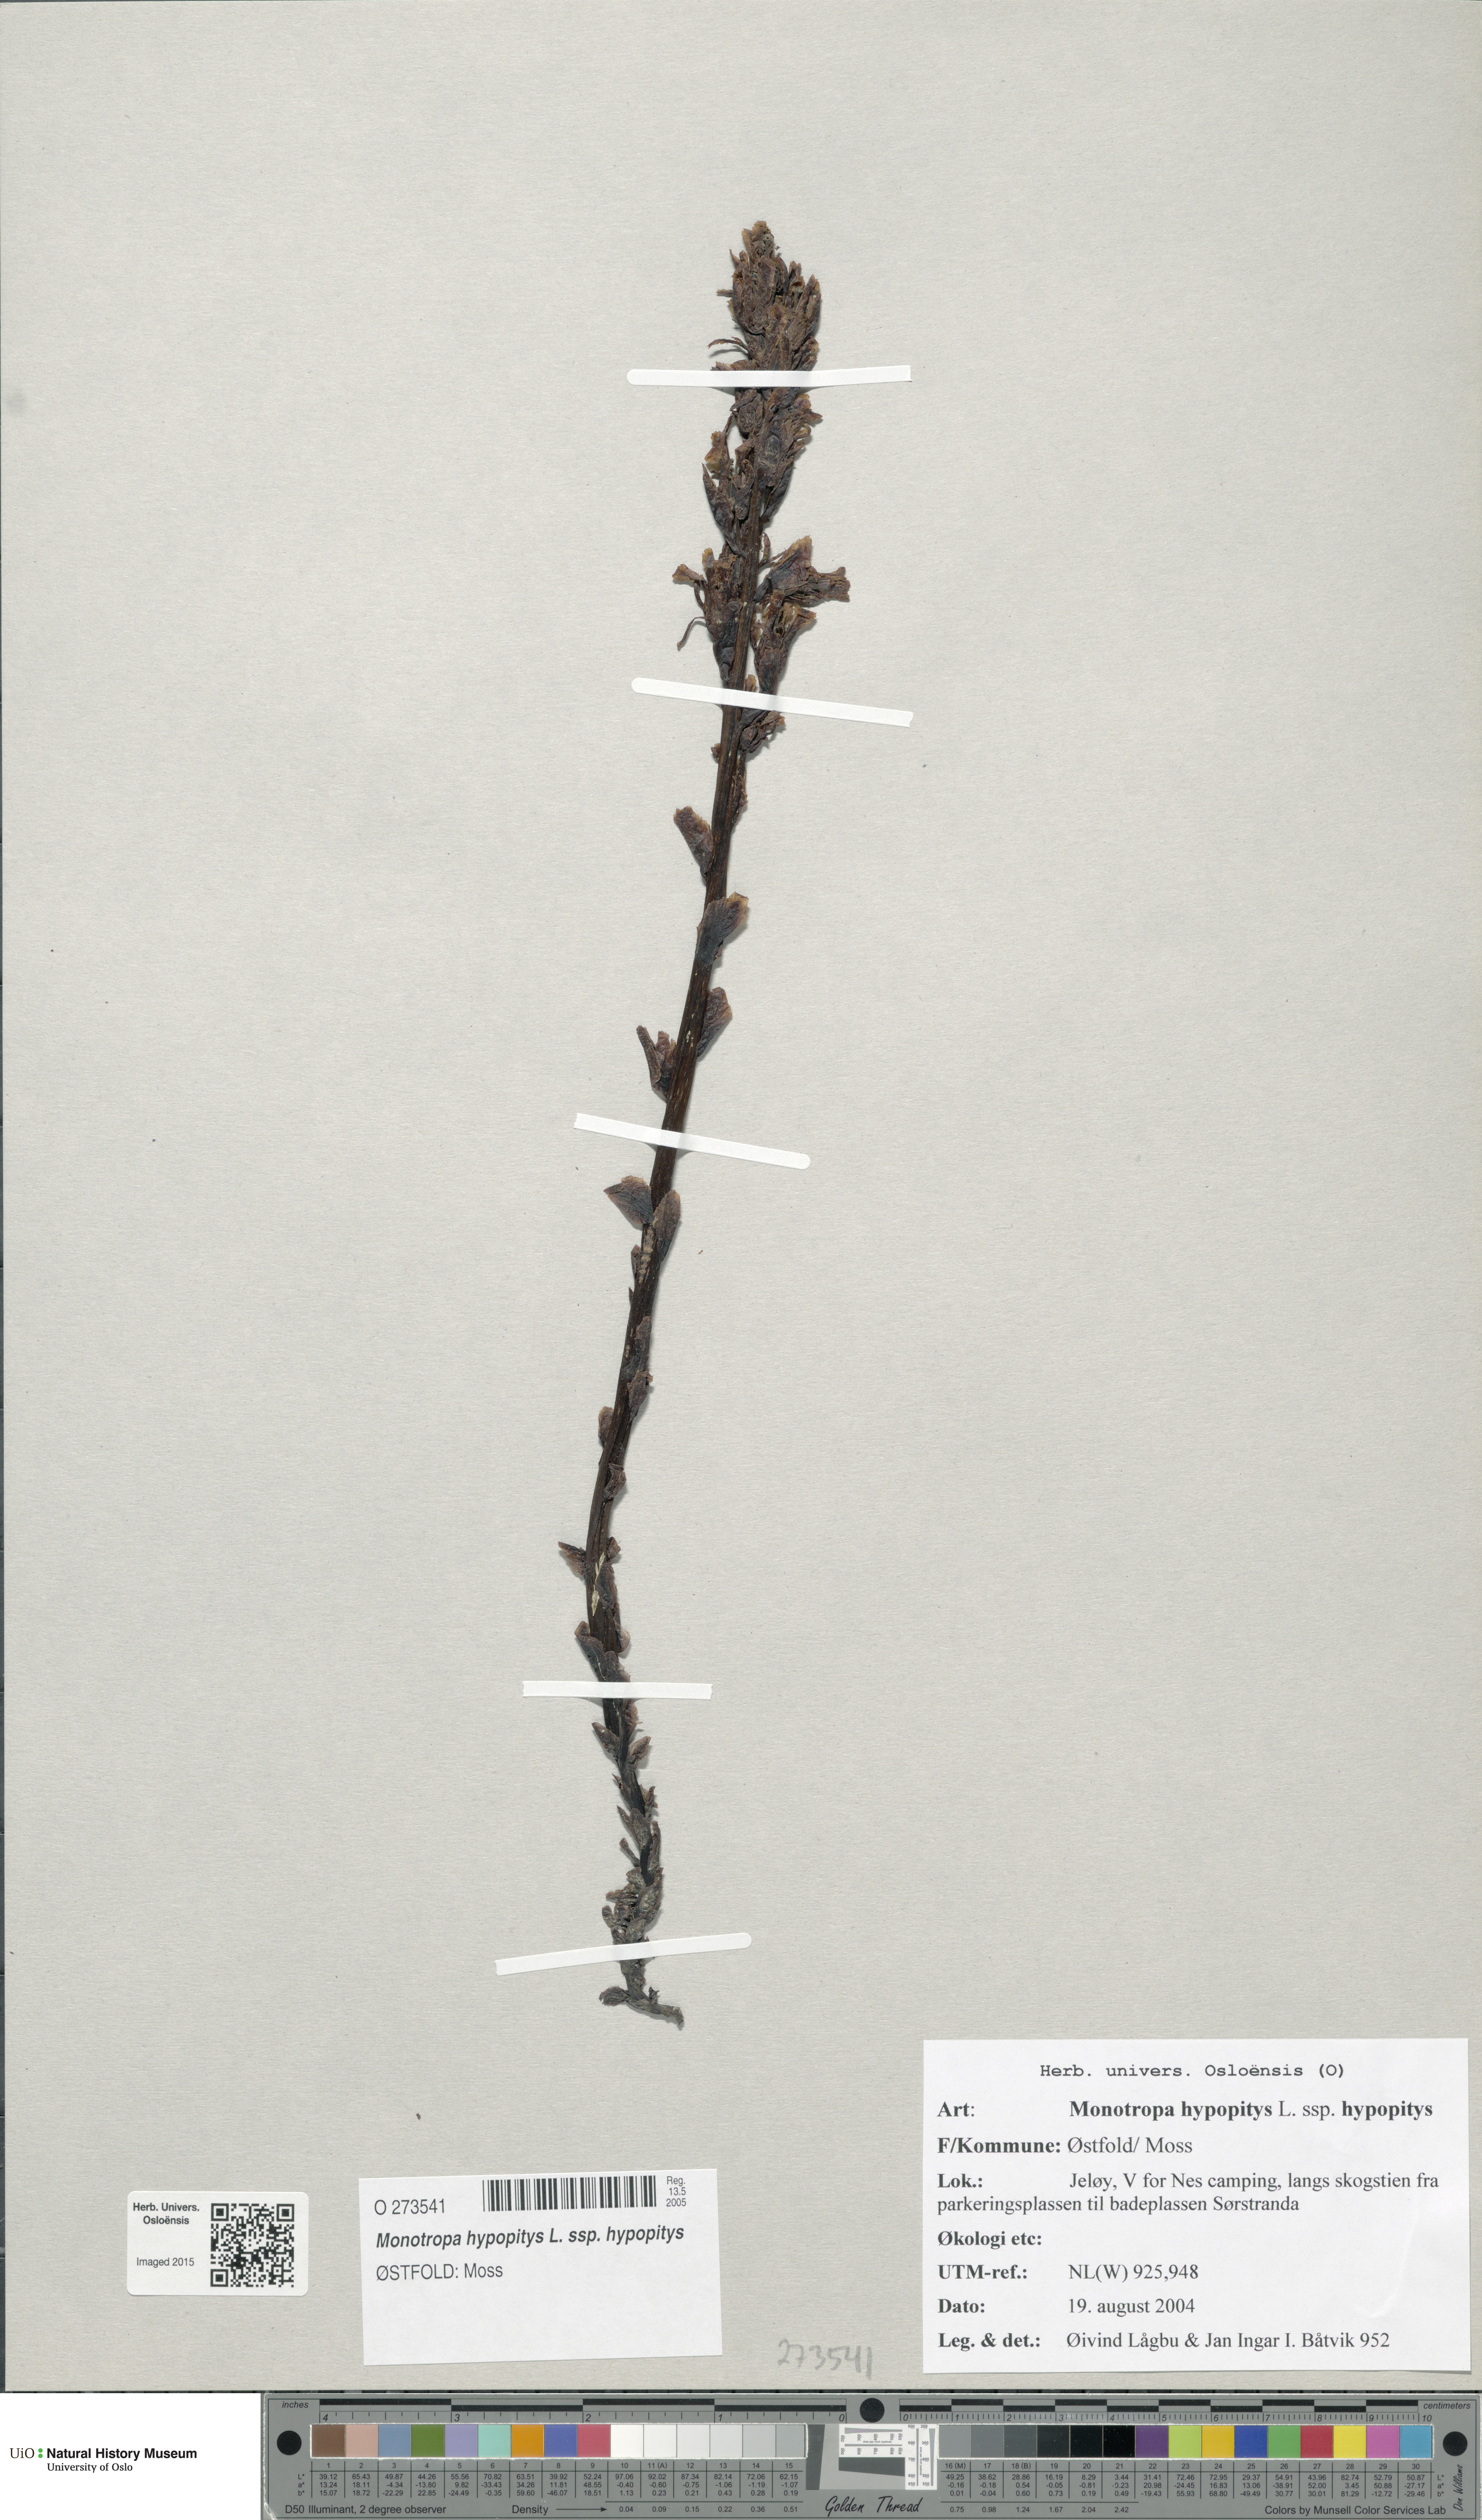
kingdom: Plantae
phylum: Tracheophyta
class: Magnoliopsida
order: Ericales
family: Ericaceae
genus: Hypopitys
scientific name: Hypopitys monotropa
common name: Yellow bird's-nest
